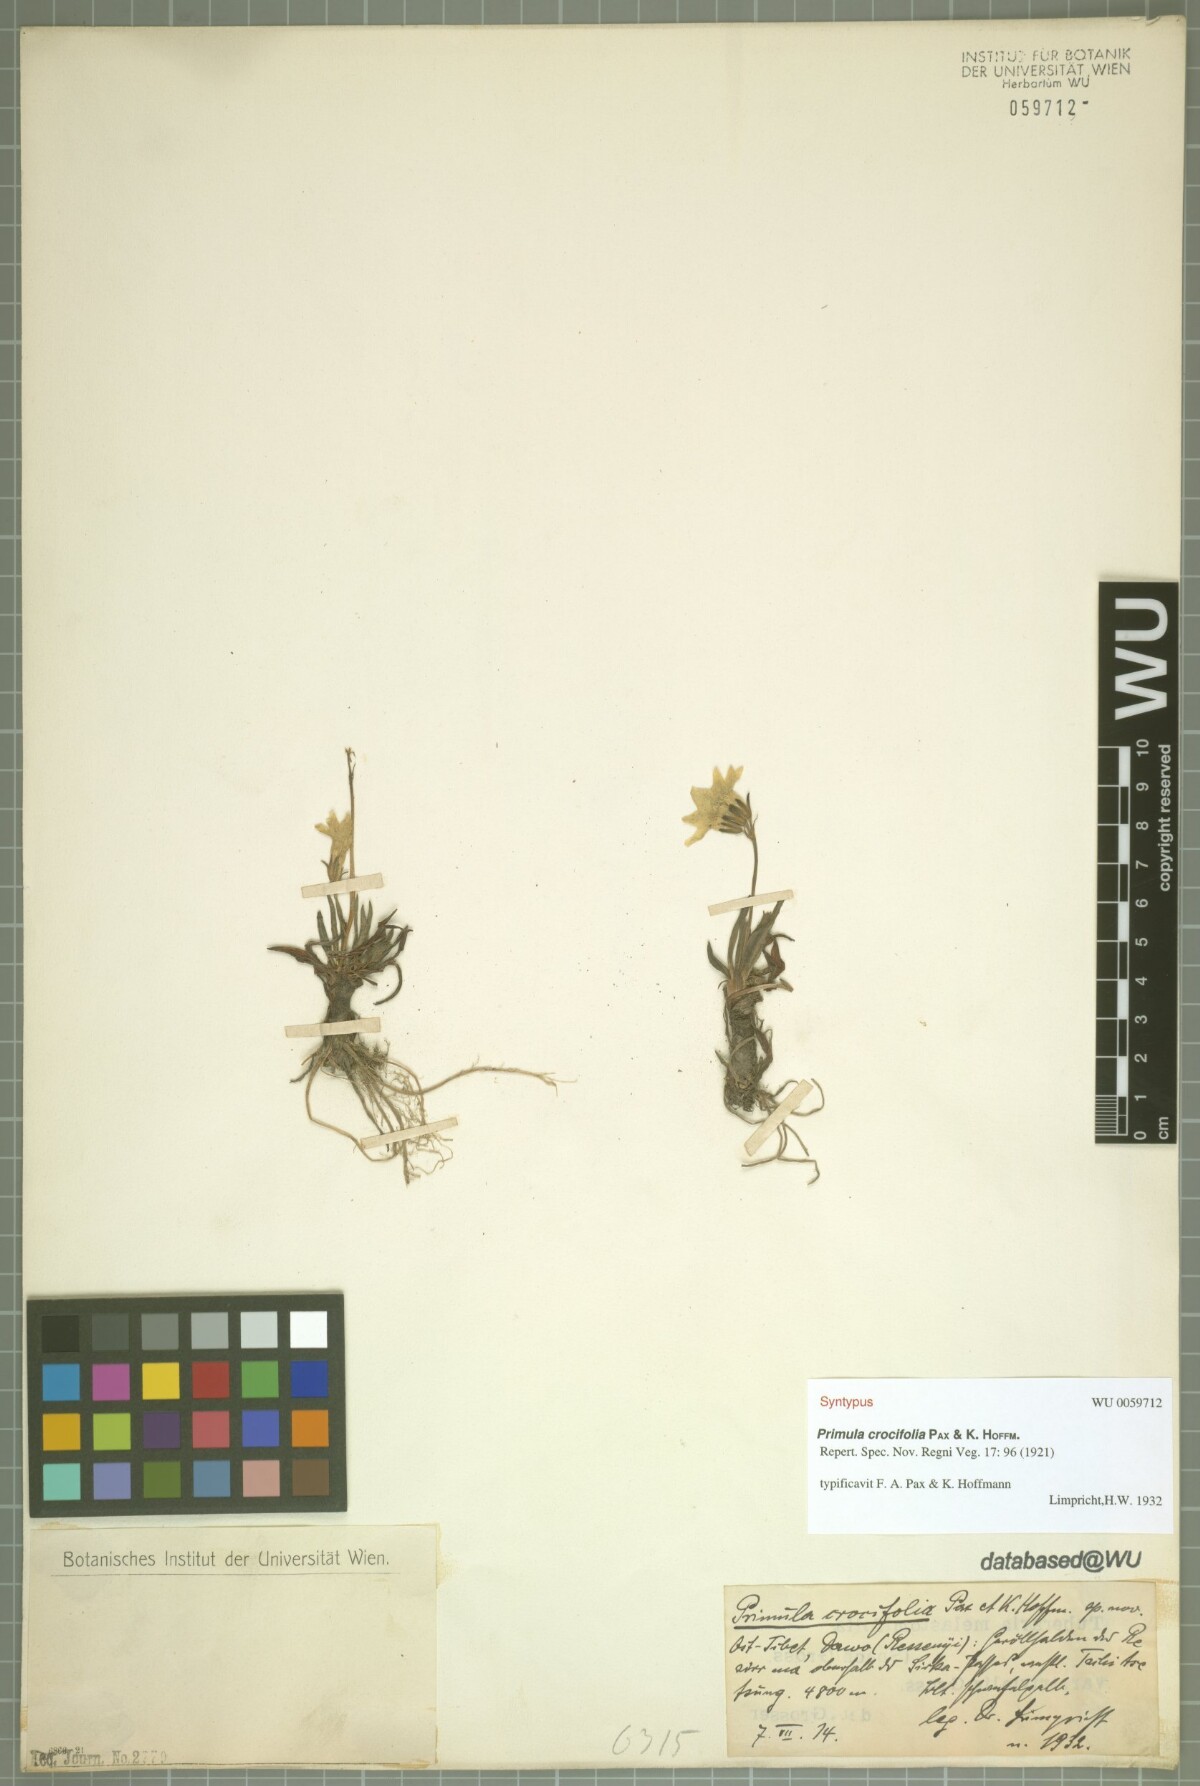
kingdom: Plantae
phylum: Tracheophyta
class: Magnoliopsida
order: Ericales
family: Primulaceae
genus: Primula
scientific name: Primula crocifolia
